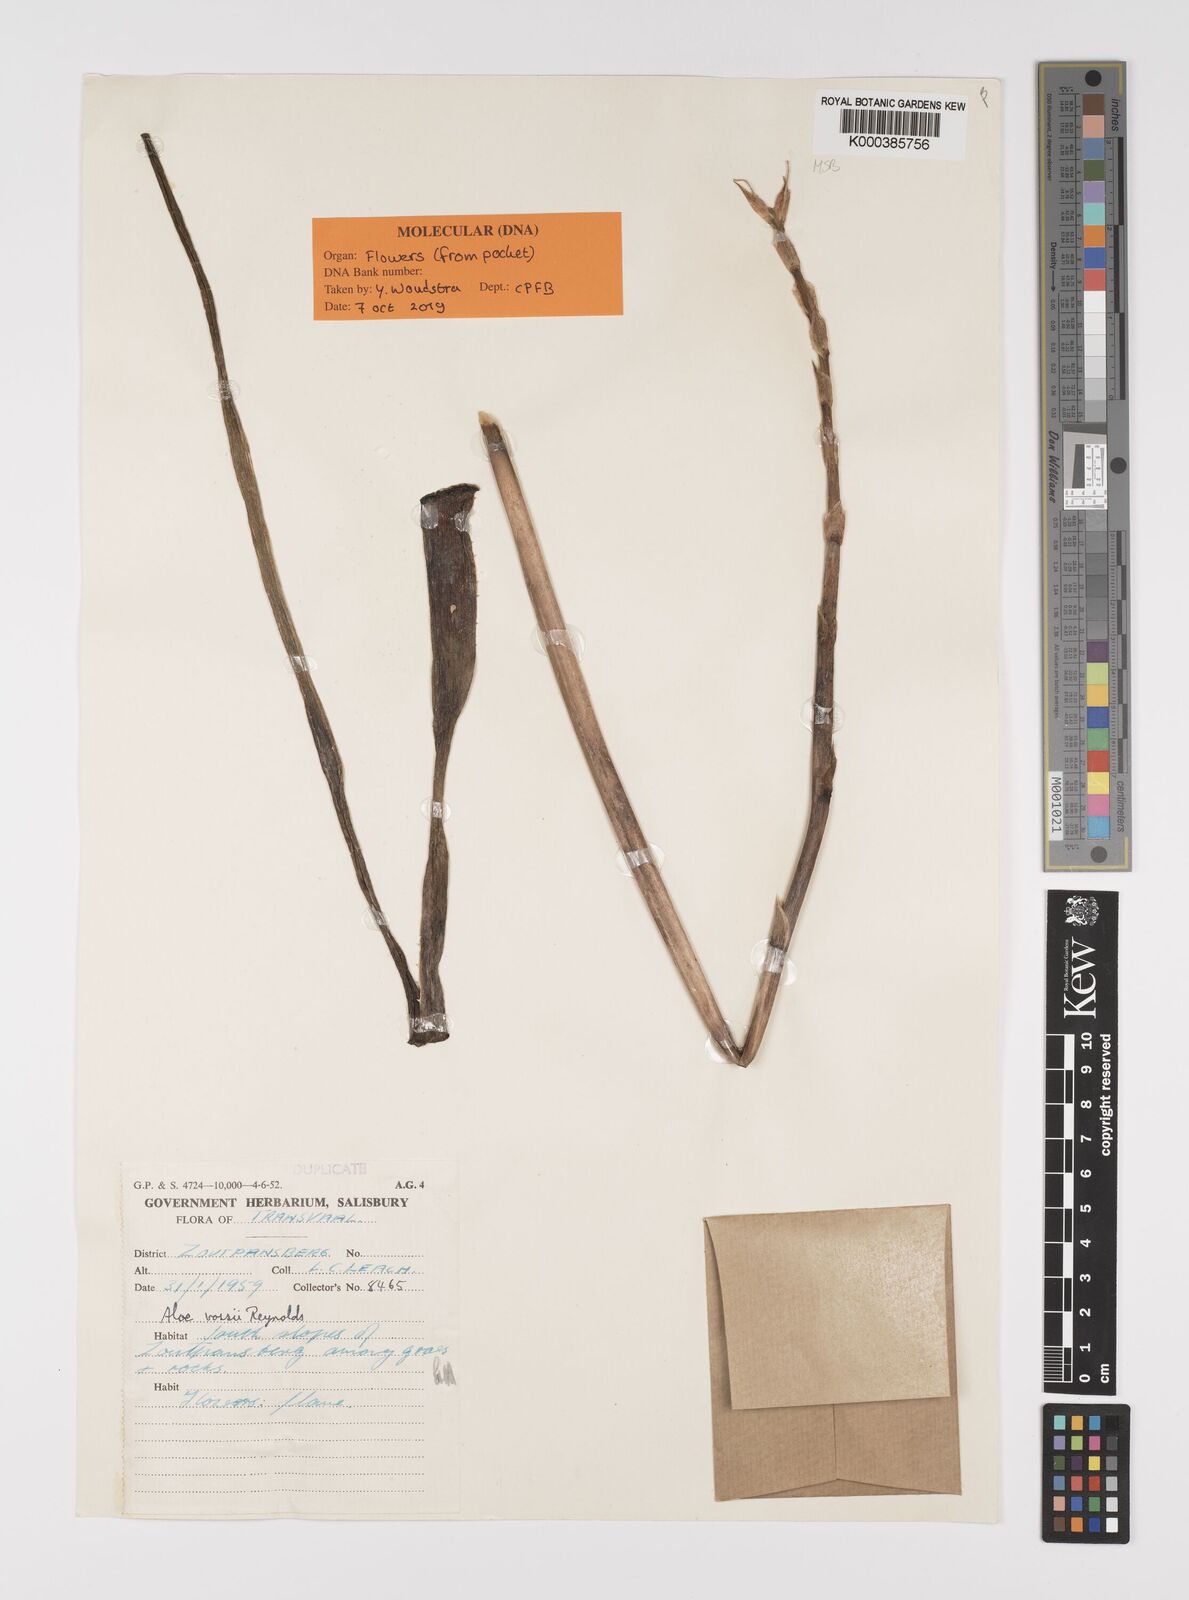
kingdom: Plantae
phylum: Tracheophyta
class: Liliopsida
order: Asparagales
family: Asphodelaceae
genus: Aloe
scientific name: Aloe vossii
